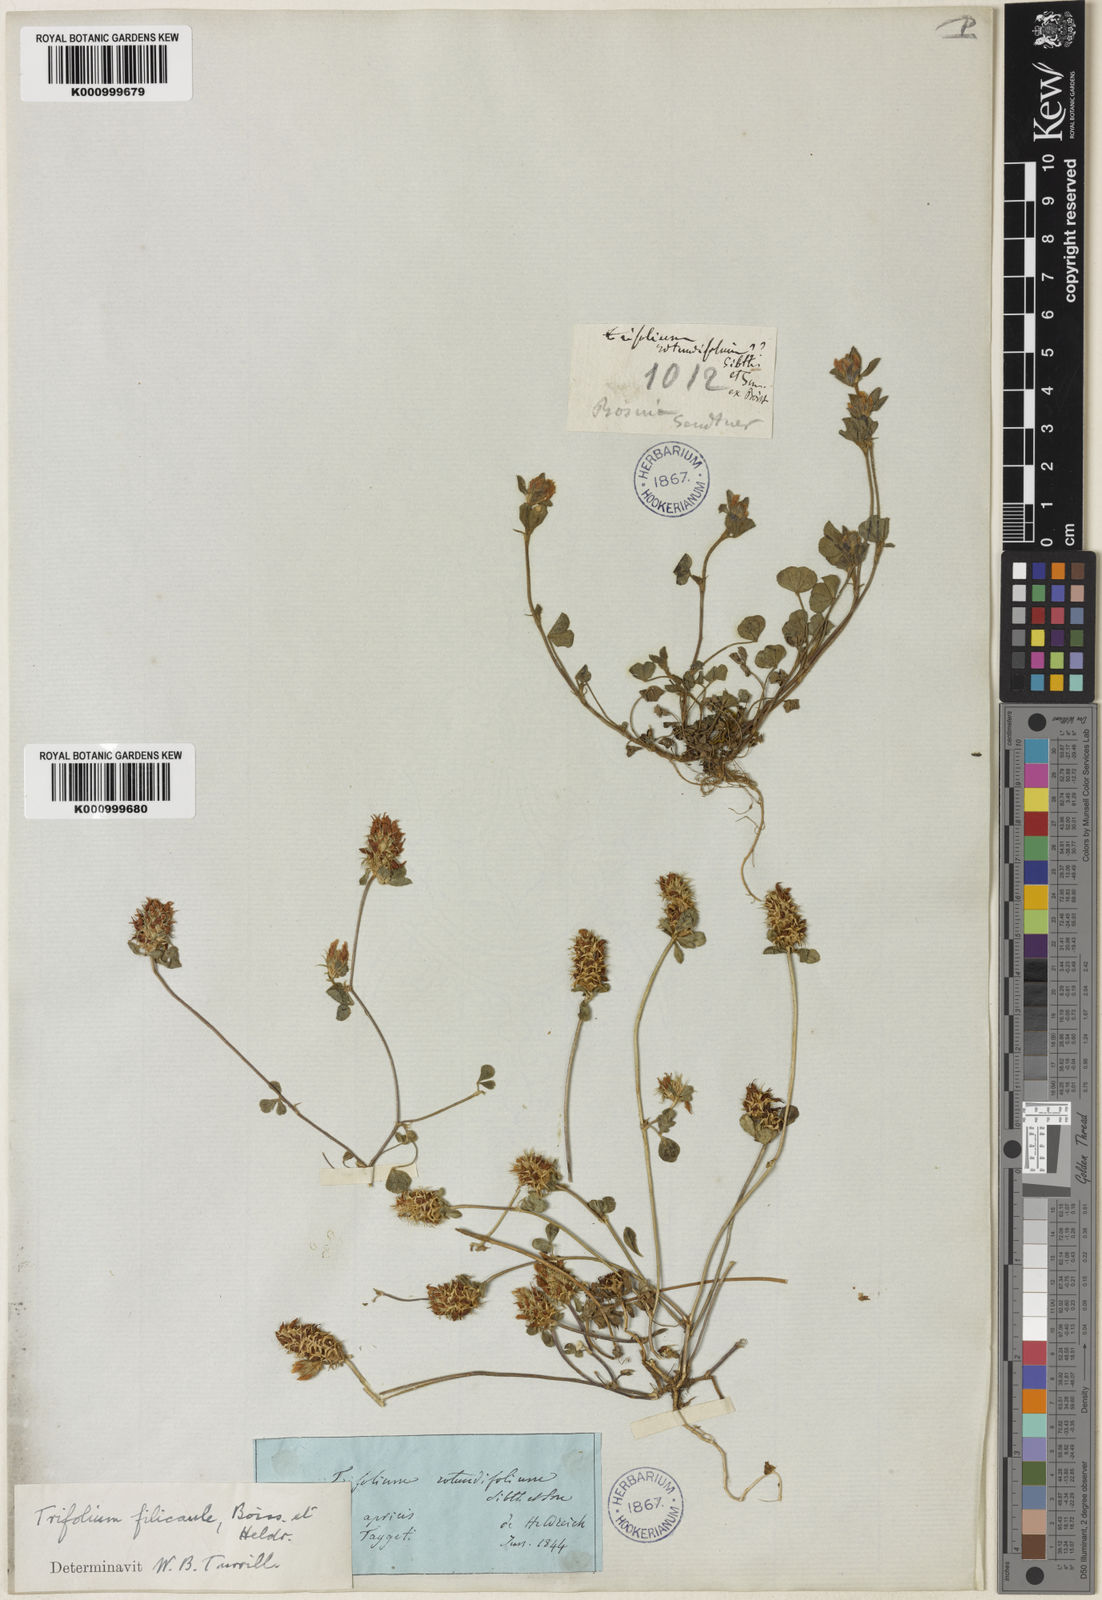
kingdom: Plantae
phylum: Tracheophyta
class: Magnoliopsida
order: Fabales
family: Fabaceae
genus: Trifolium
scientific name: Trifolium dalmaticum
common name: Dalmatian clover
